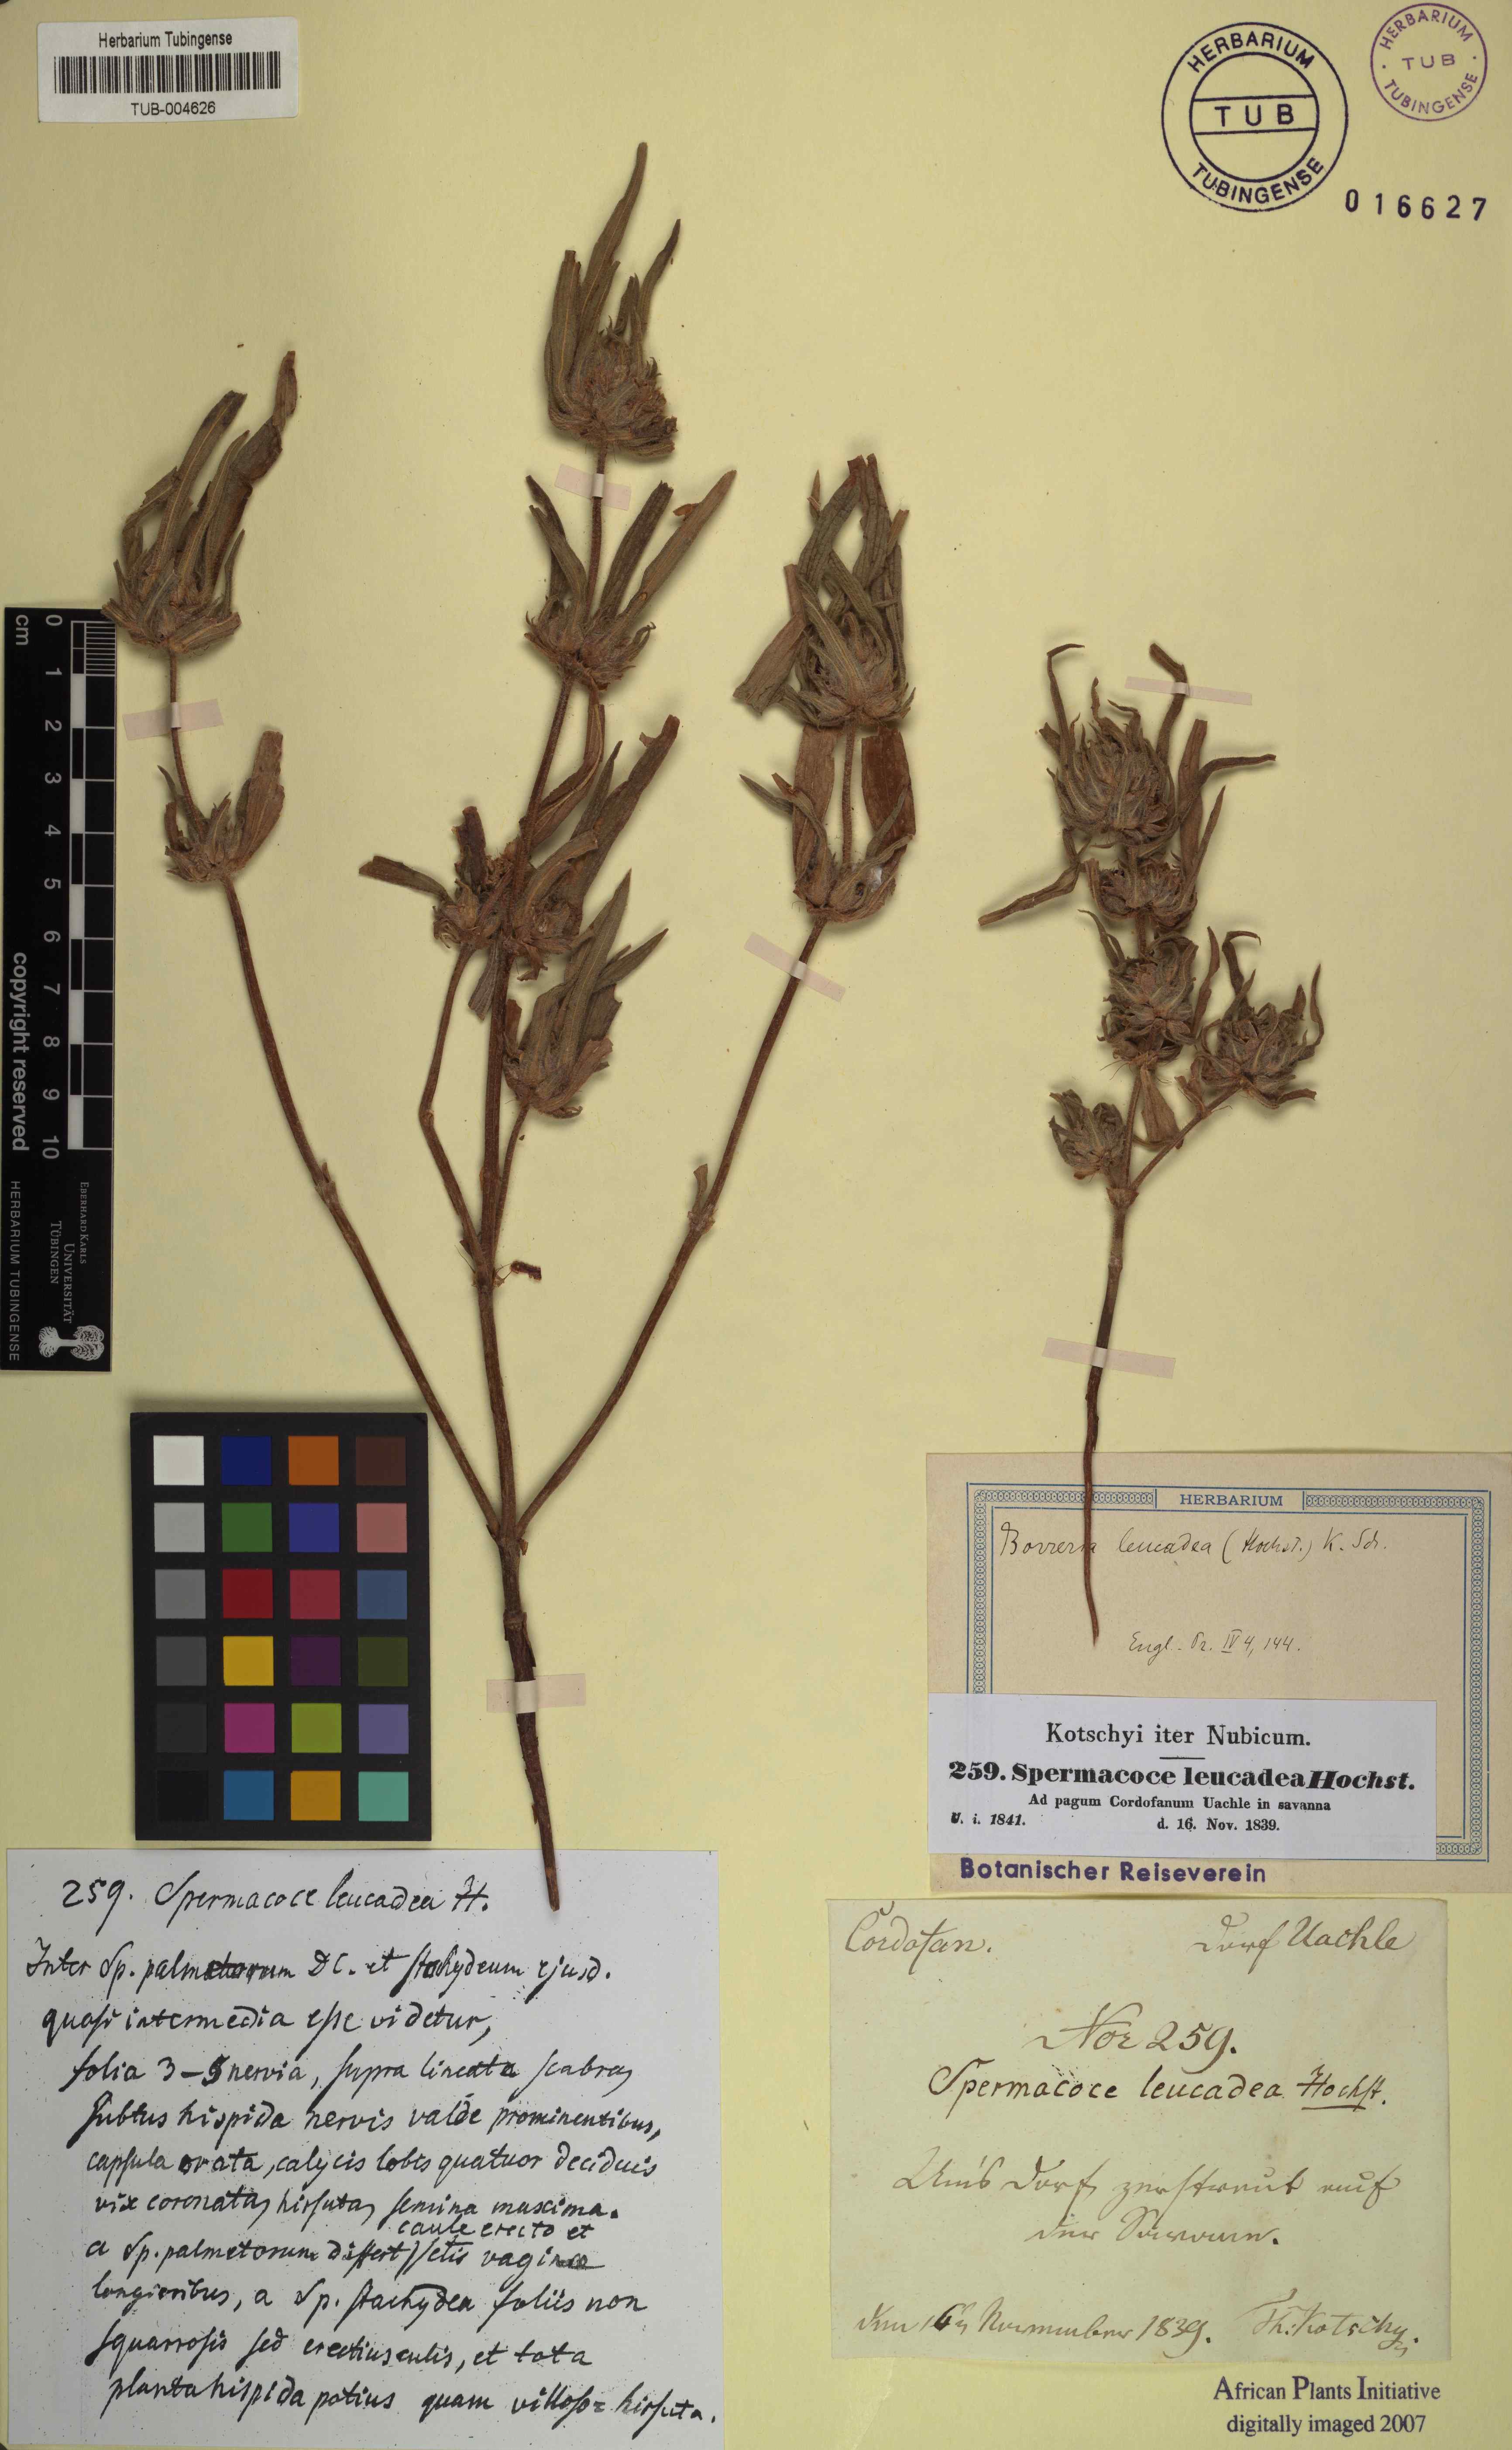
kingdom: Plantae
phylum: Tracheophyta
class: Magnoliopsida
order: Gentianales
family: Rubiaceae
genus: Spermacoce
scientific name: Spermacoce stachydea
